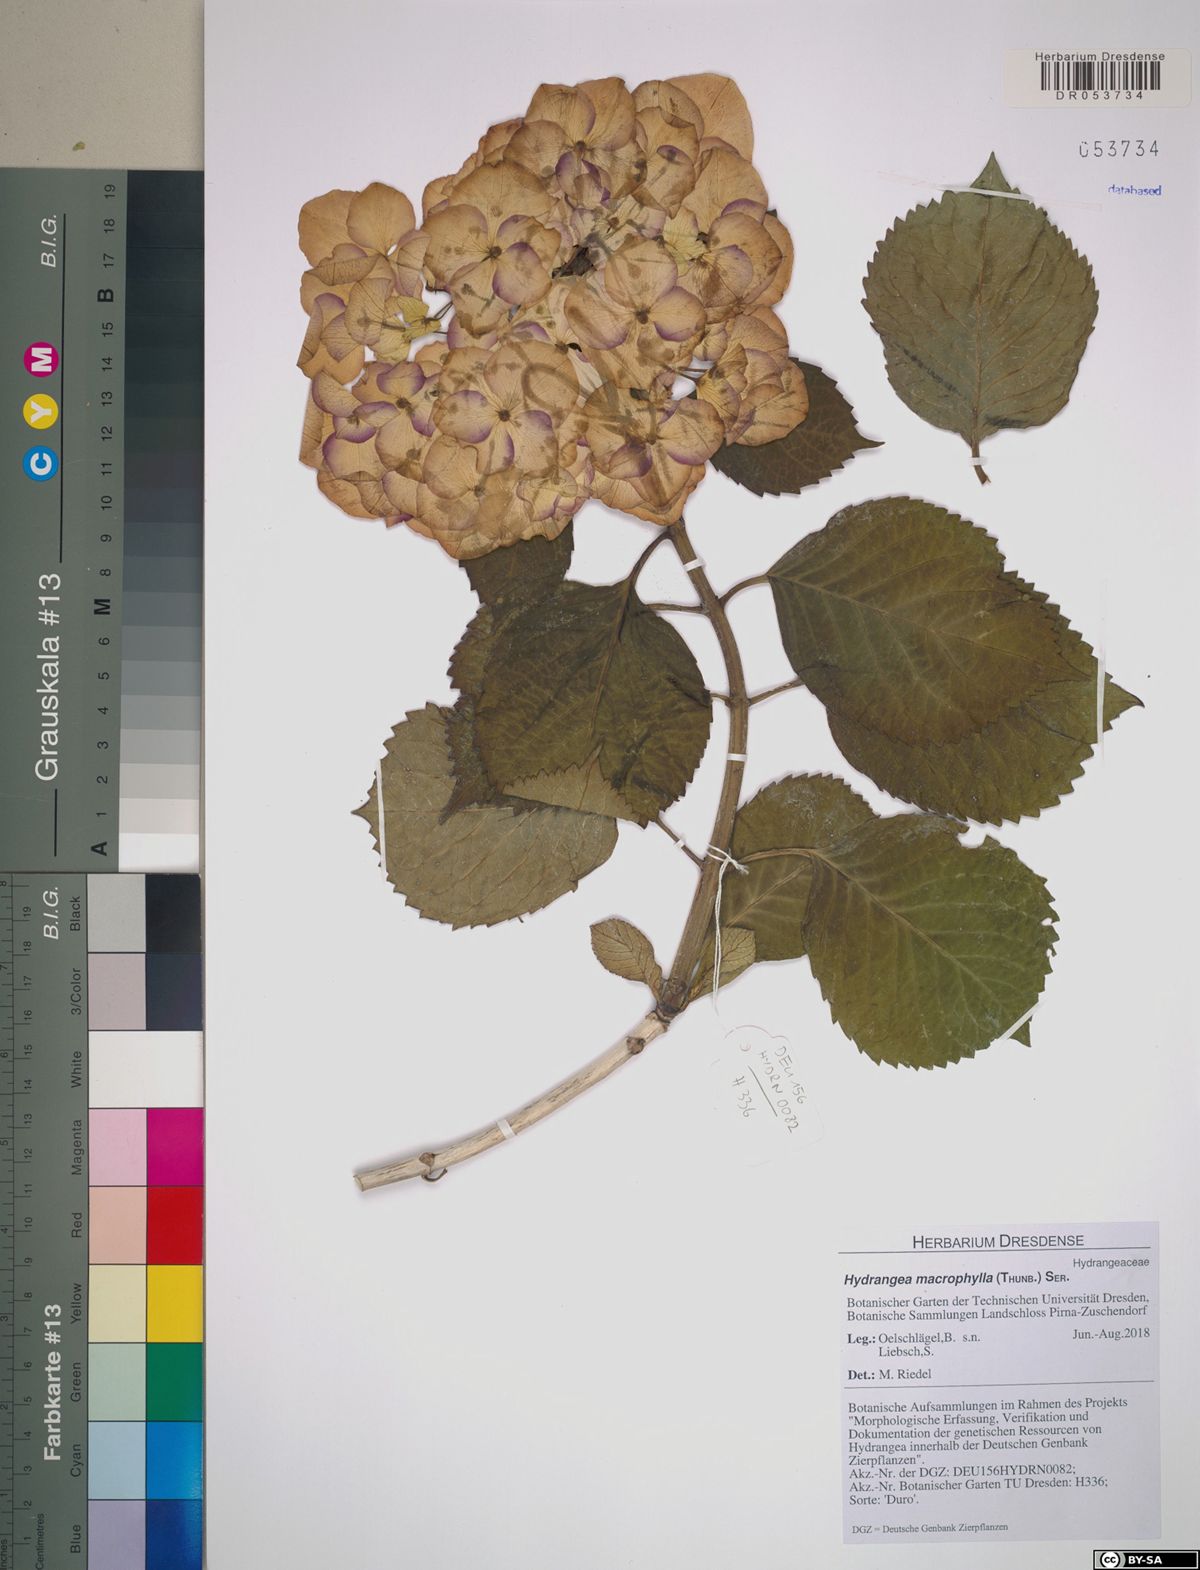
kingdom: Plantae
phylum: Tracheophyta
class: Magnoliopsida
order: Cornales
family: Hydrangeaceae
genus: Hydrangea
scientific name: Hydrangea macrophylla
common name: Hydrangea
